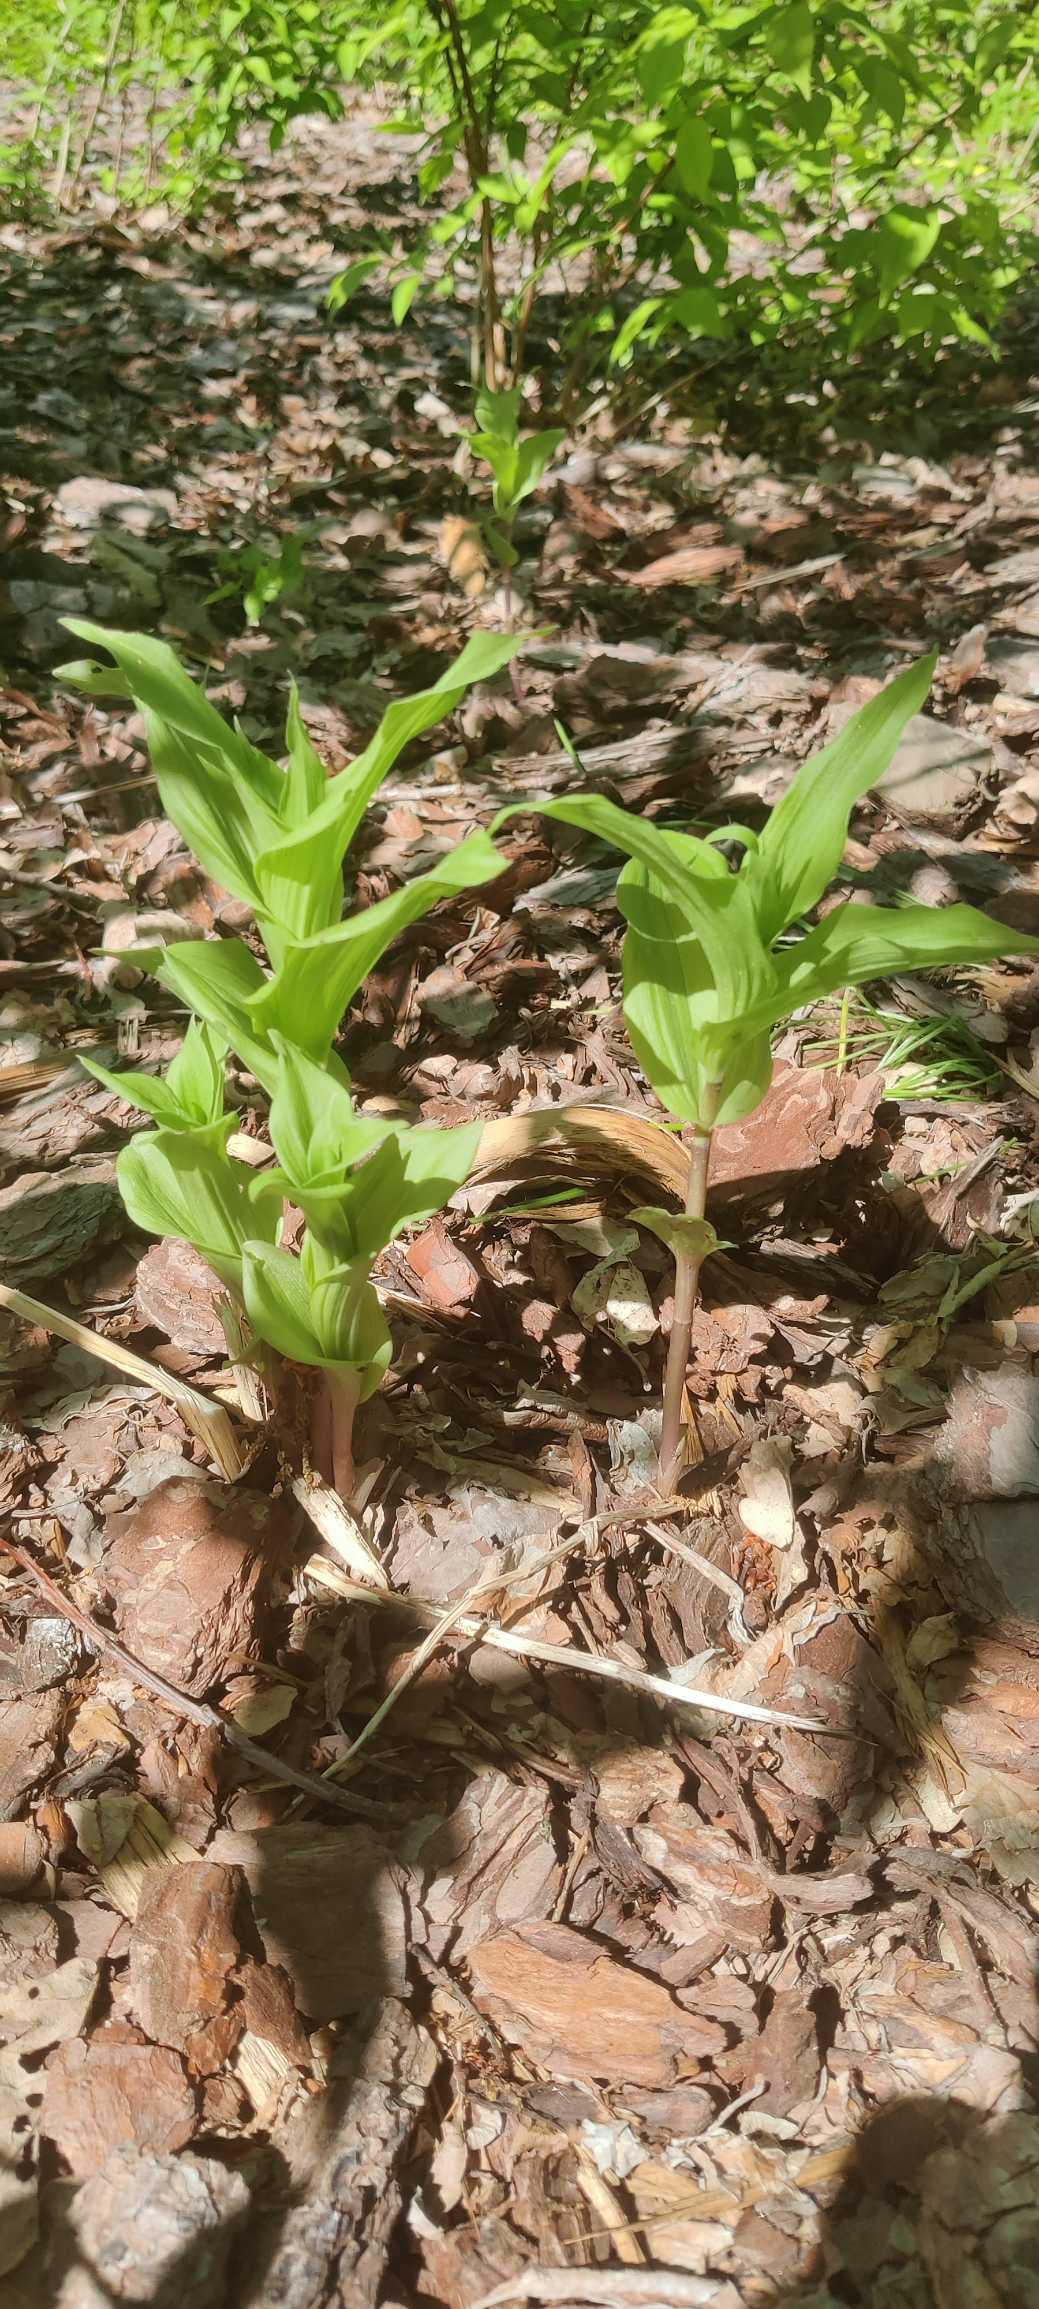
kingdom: Plantae
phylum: Tracheophyta
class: Liliopsida
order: Asparagales
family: Orchidaceae
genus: Epipactis
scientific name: Epipactis helleborine
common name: Skov-hullæbe
